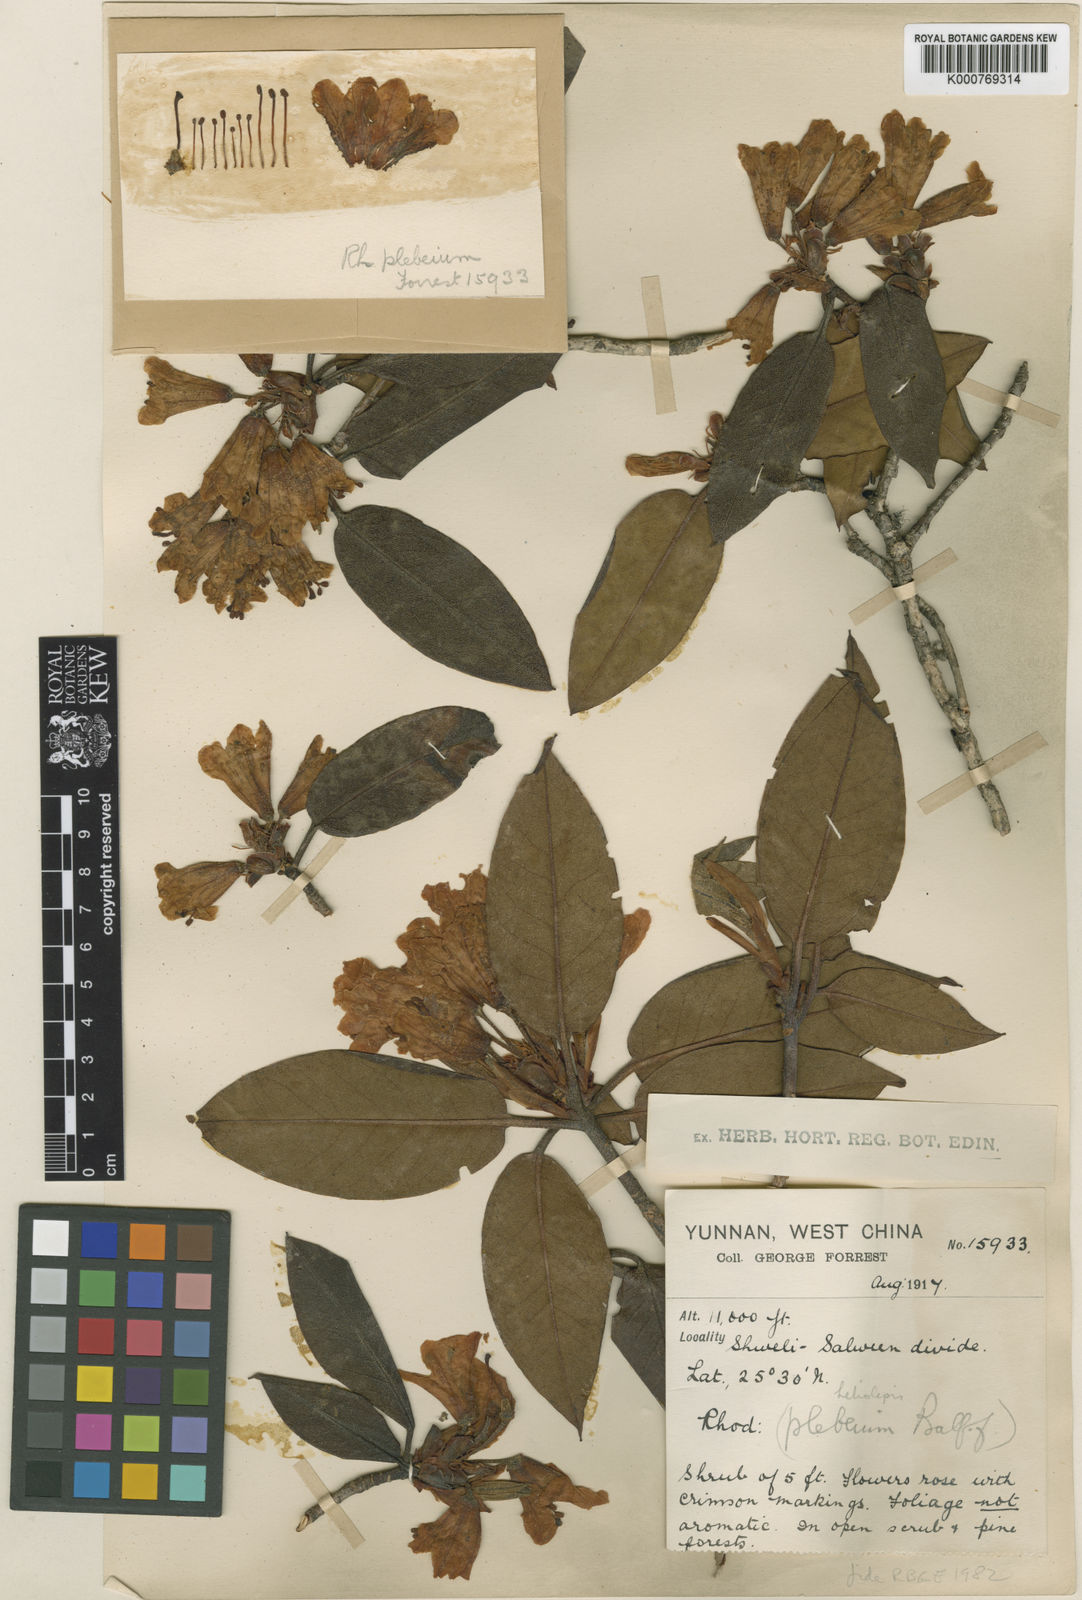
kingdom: Plantae
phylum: Tracheophyta
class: Magnoliopsida
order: Ericales
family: Ericaceae
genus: Rhododendron
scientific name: Rhododendron heliolepis
